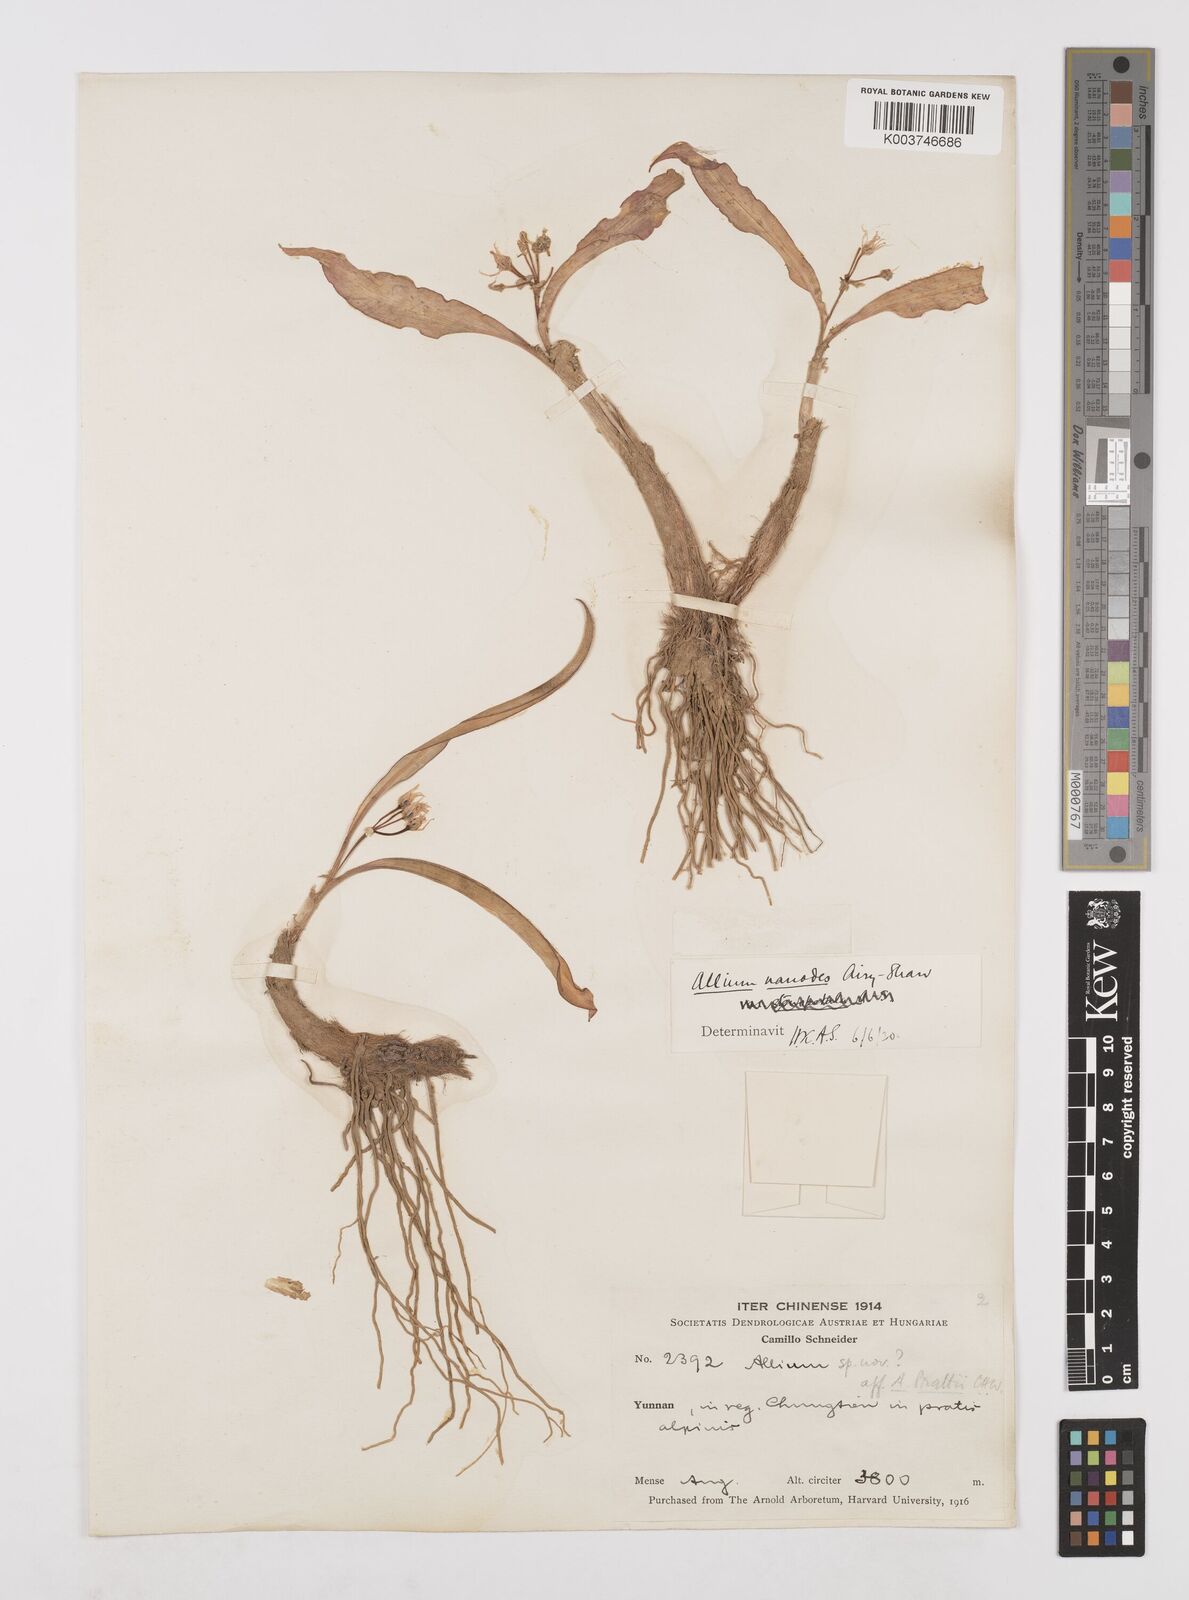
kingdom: Plantae
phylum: Tracheophyta
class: Liliopsida
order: Asparagales
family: Amaryllidaceae
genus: Allium
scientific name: Allium nanodes
